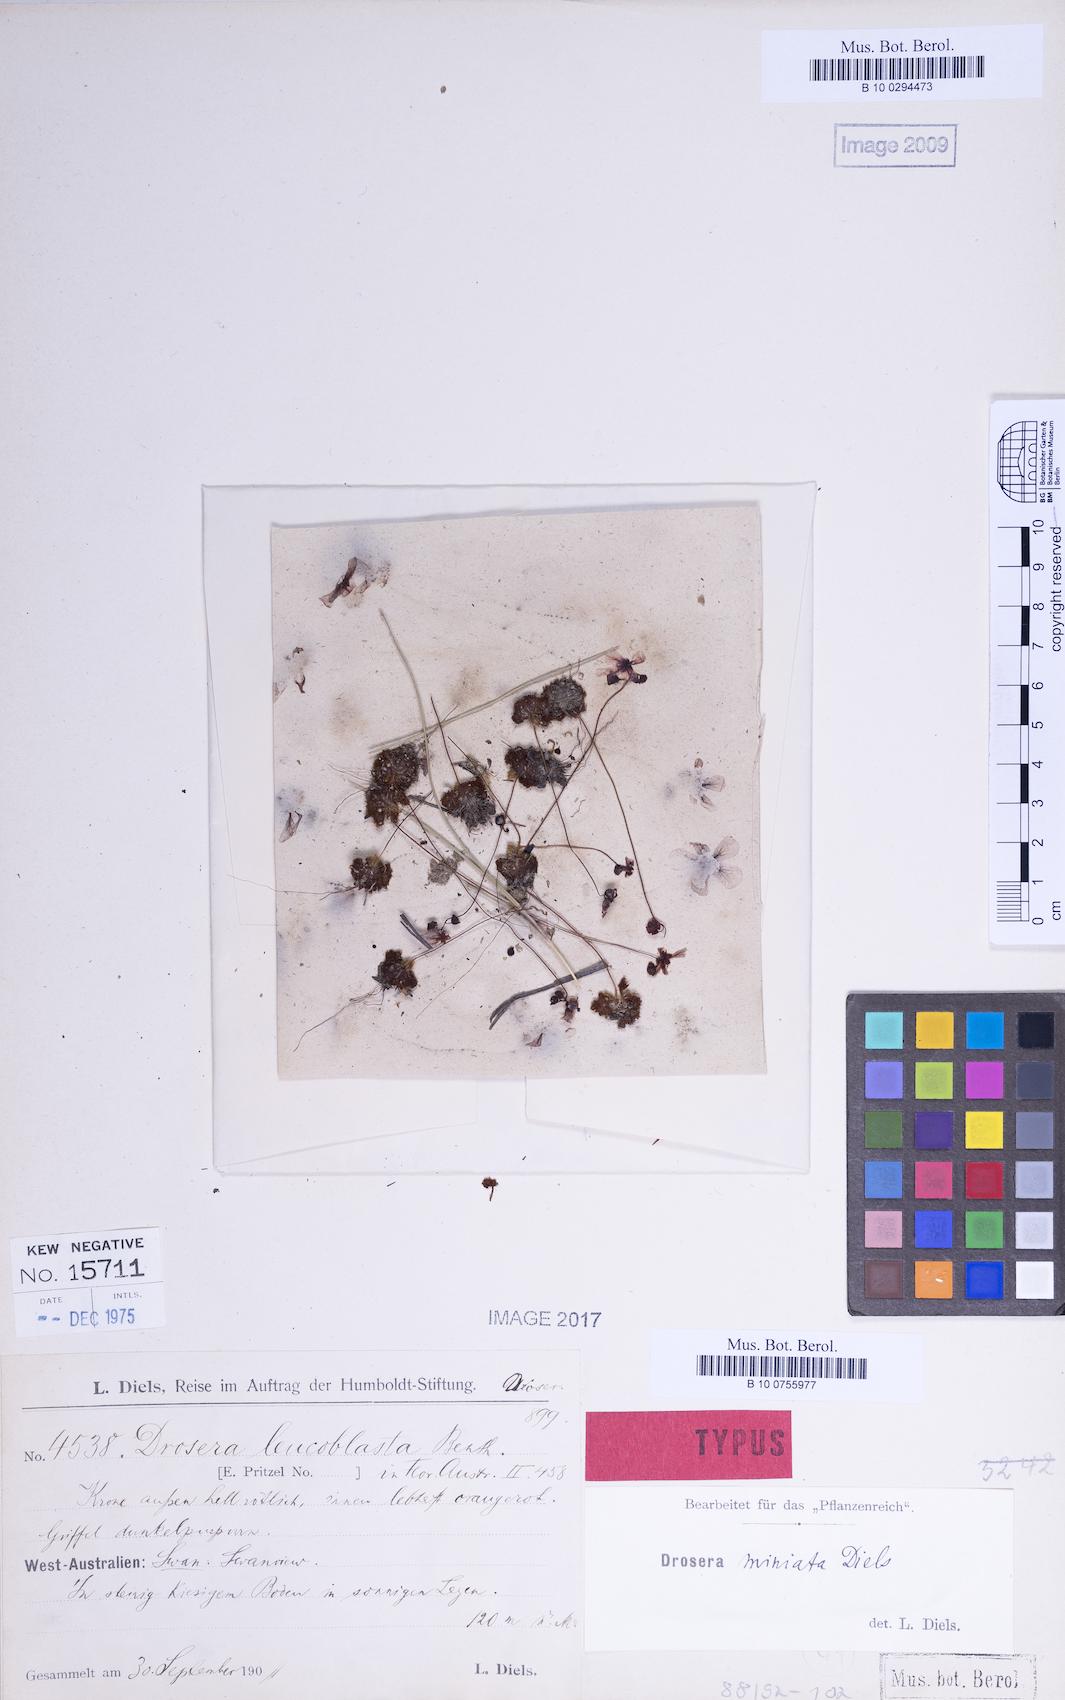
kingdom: Plantae
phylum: Tracheophyta
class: Magnoliopsida
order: Caryophyllales
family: Droseraceae
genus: Drosera
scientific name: Drosera miniata
